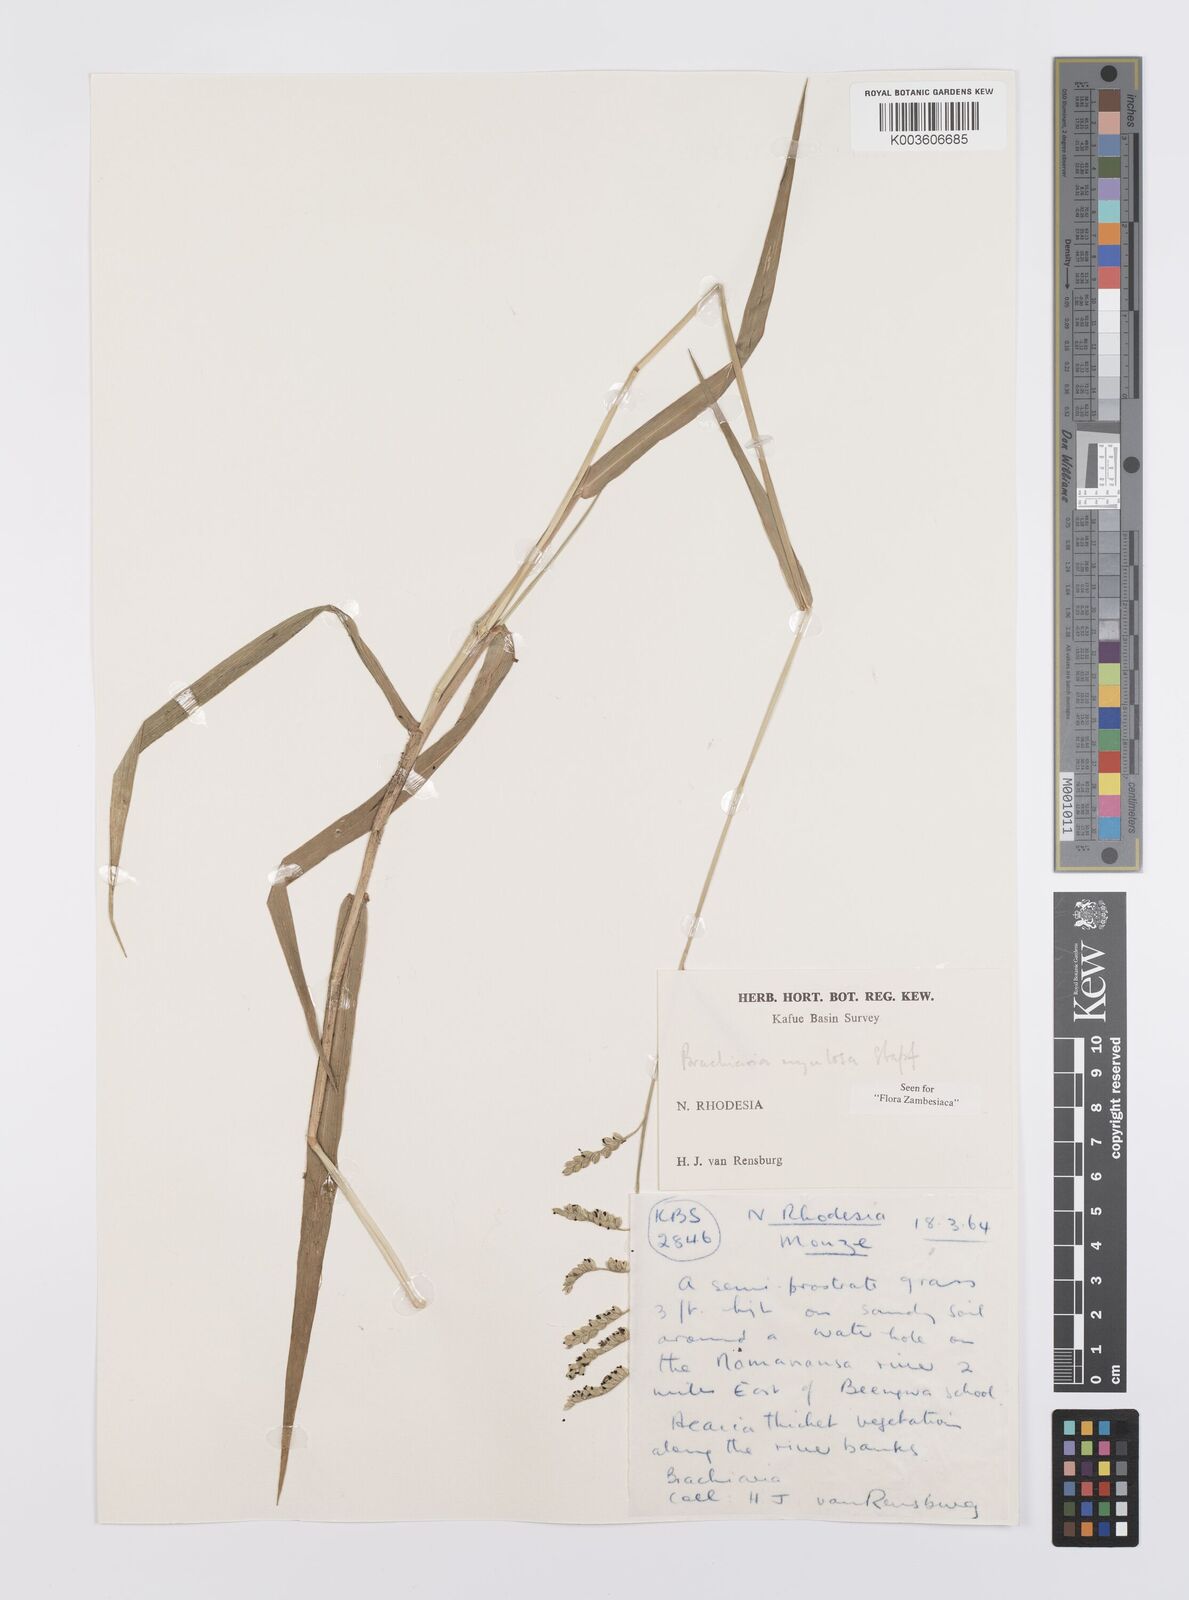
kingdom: Plantae
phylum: Tracheophyta
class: Liliopsida
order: Poales
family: Poaceae
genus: Urochloa
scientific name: Urochloa rugulosa
